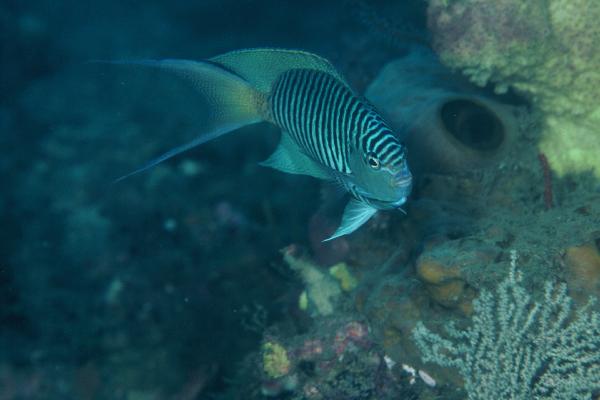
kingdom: Animalia
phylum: Chordata
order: Perciformes
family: Pomacanthidae
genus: Genicanthus
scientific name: Genicanthus melanospilos
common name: Black-spot angelfish
